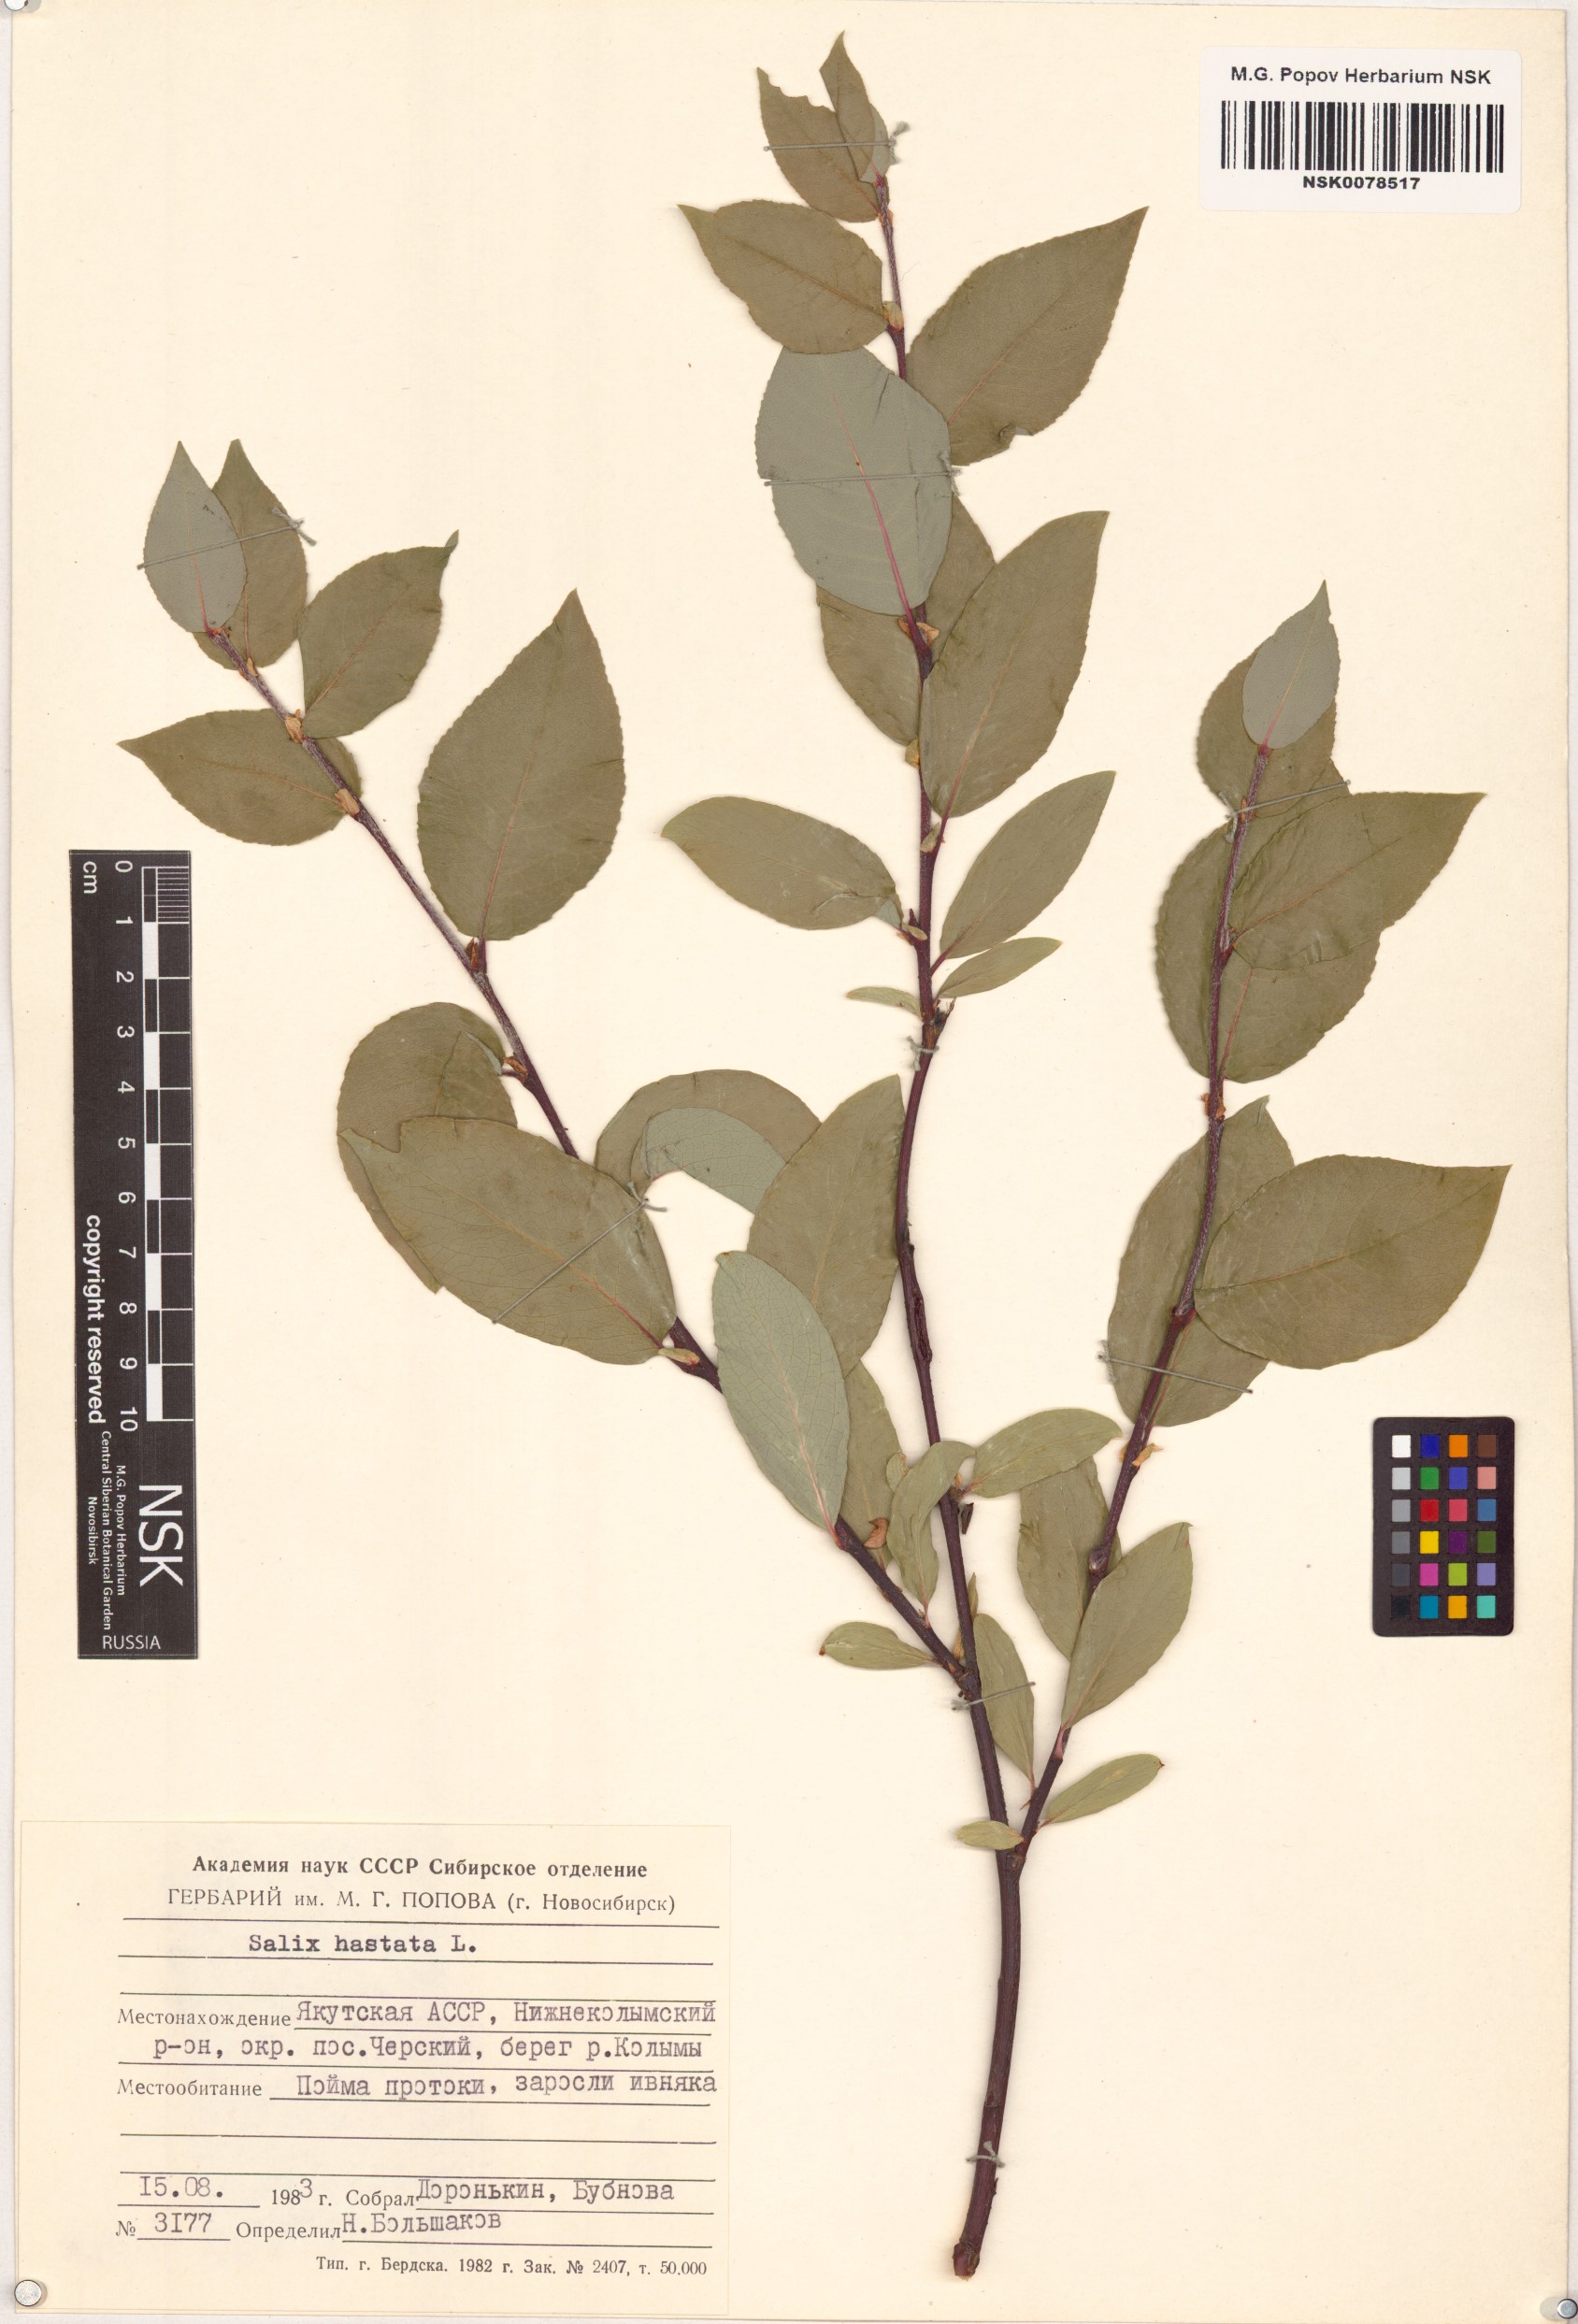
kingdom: Plantae
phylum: Tracheophyta
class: Magnoliopsida
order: Malpighiales
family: Salicaceae
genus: Salix
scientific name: Salix hastata
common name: Halberd willow
